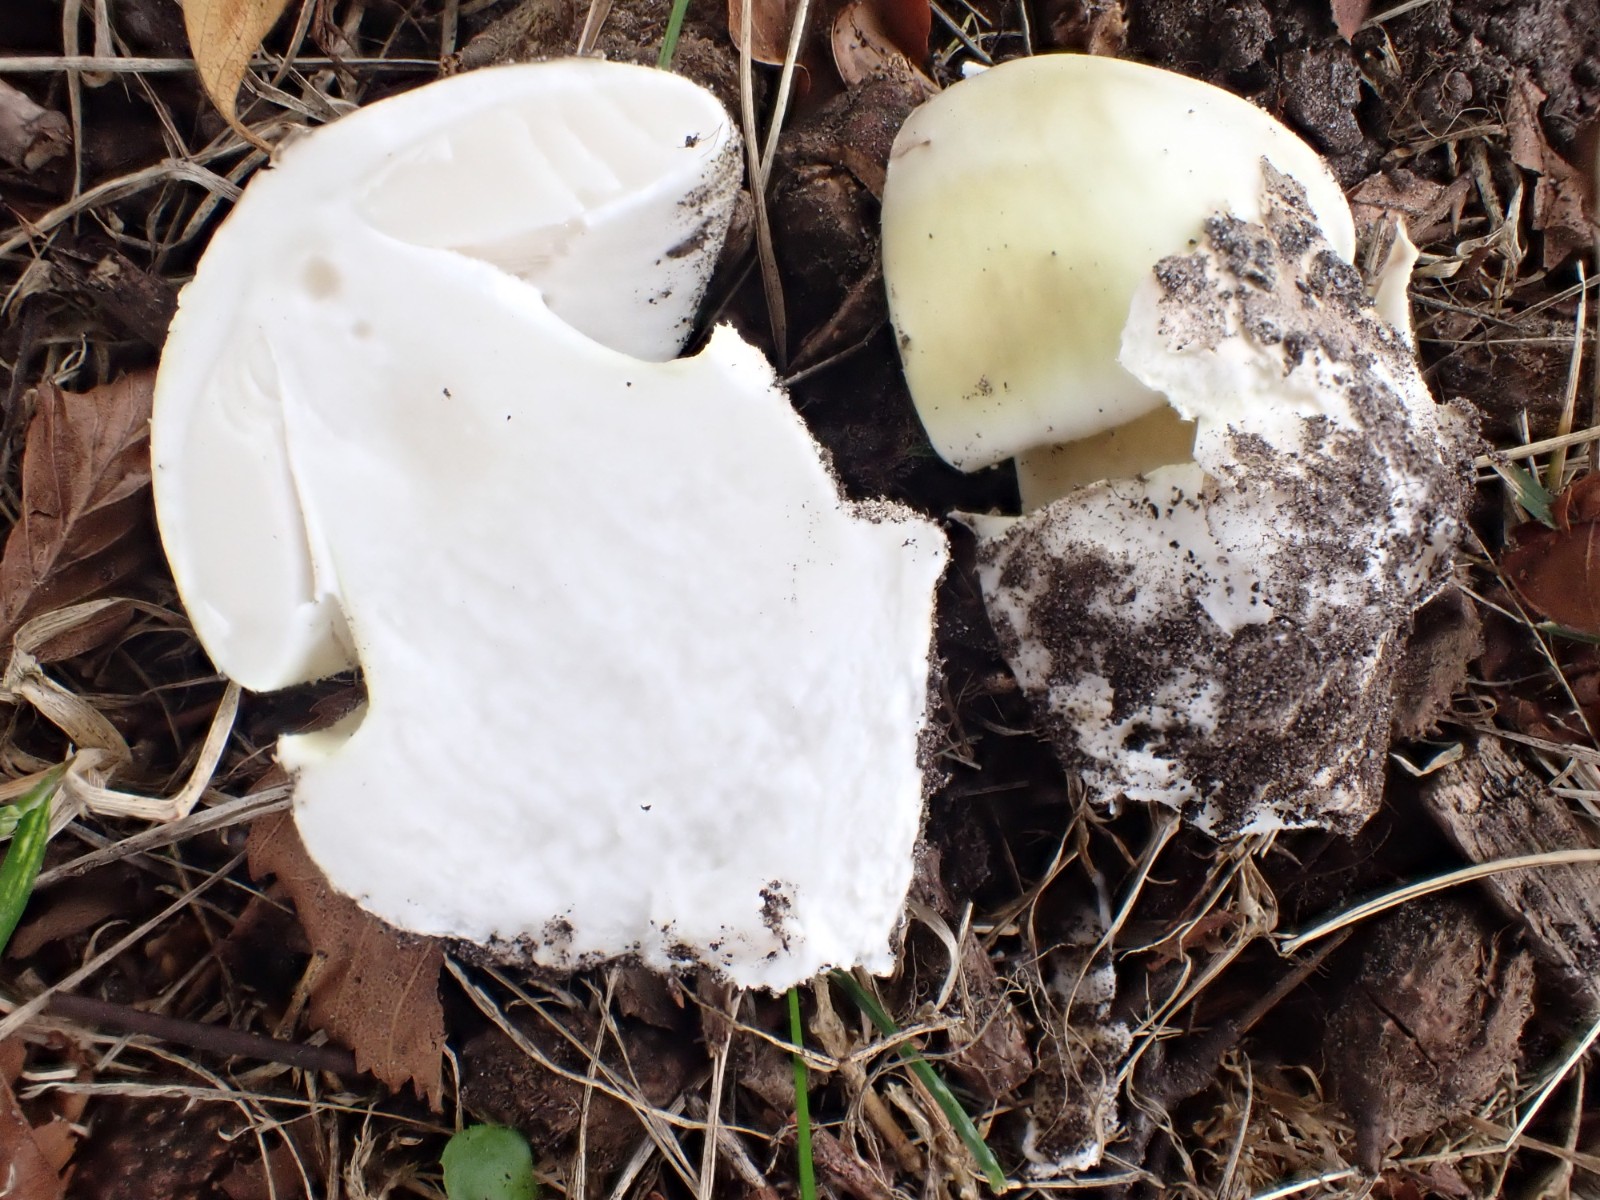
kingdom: Fungi
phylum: Basidiomycota
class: Agaricomycetes
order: Agaricales
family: Amanitaceae
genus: Amanita
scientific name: Amanita phalloides
